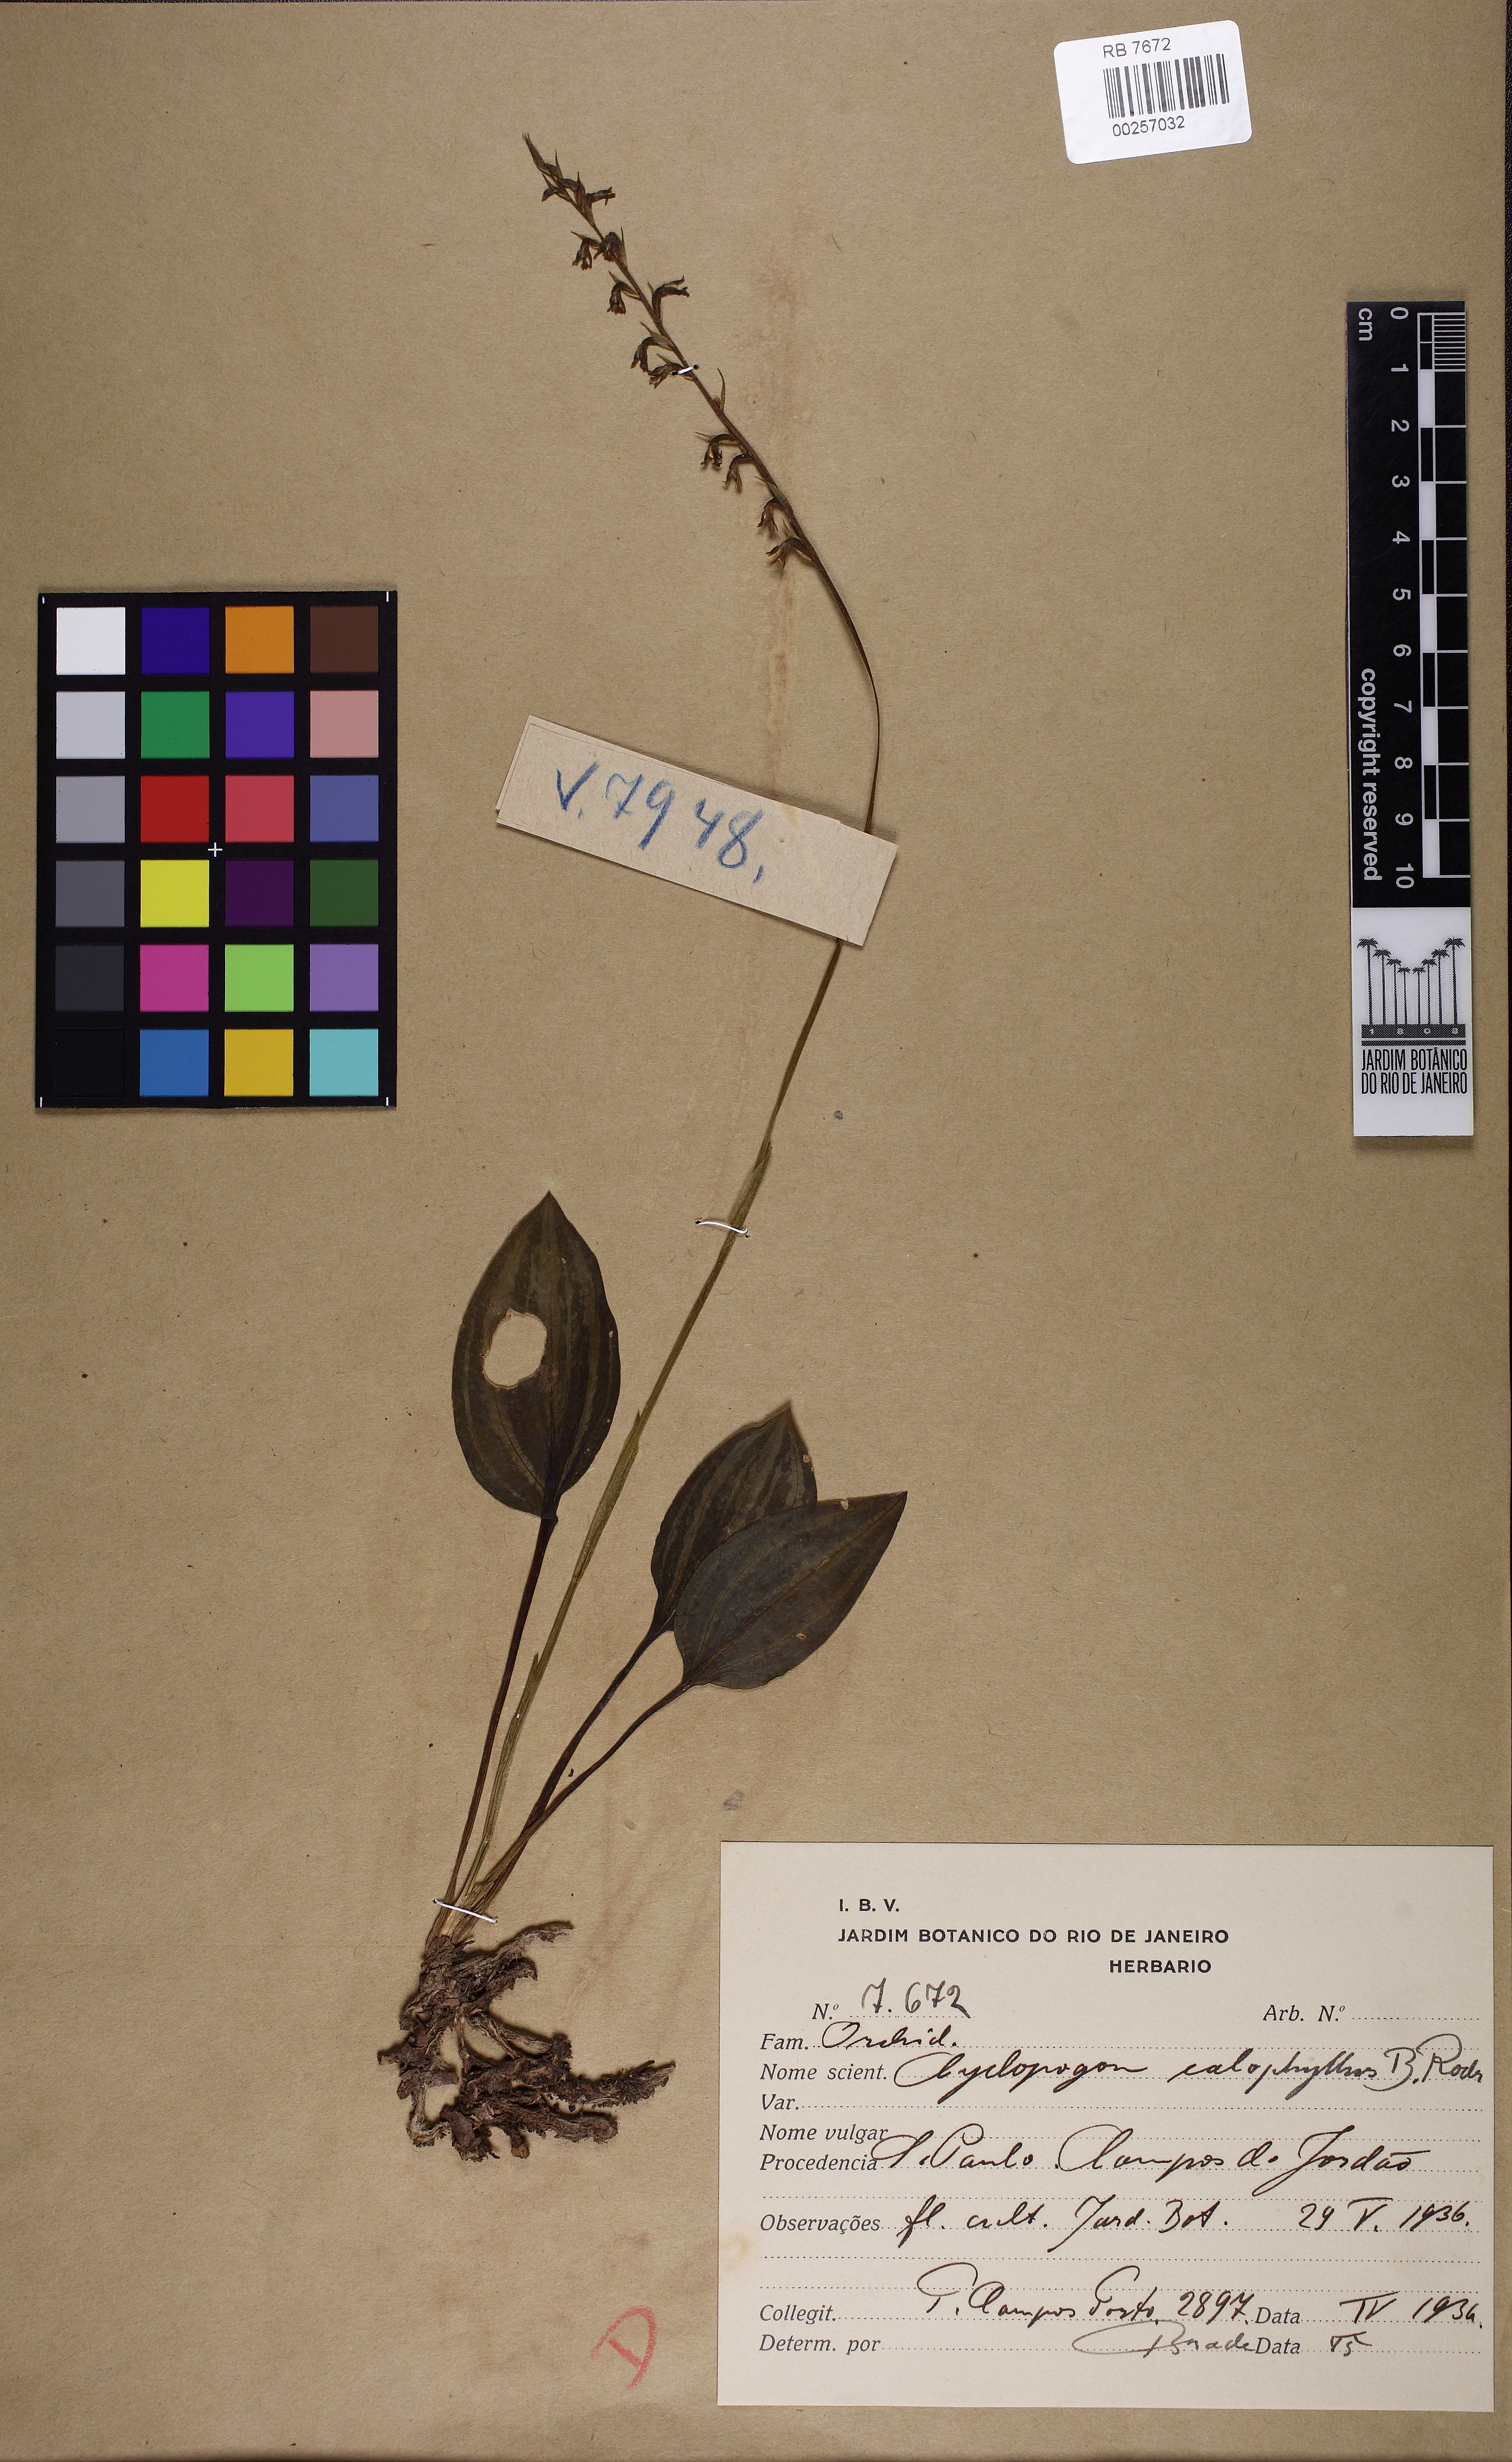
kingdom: Plantae
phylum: Tracheophyta
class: Liliopsida
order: Asparagales
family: Orchidaceae
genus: Cyclopogon
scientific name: Cyclopogon calophyllus
